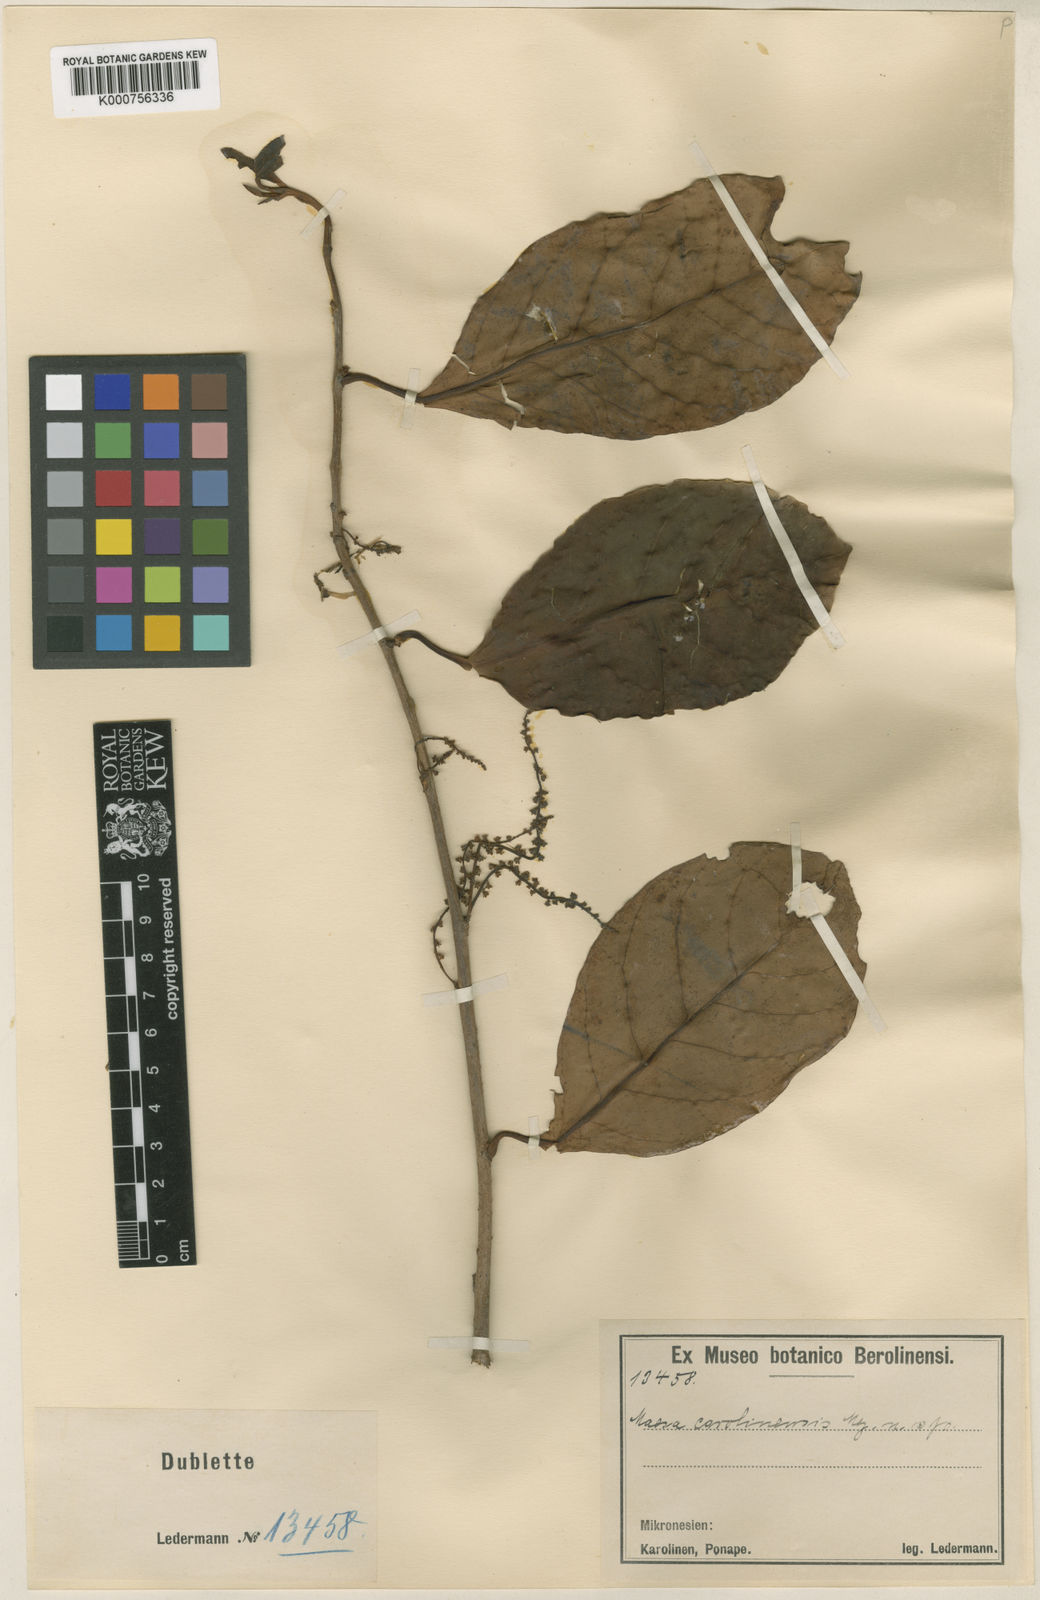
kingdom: Plantae
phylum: Tracheophyta
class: Magnoliopsida
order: Ericales
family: Primulaceae
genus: Maesa
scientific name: Maesa carolinensis
